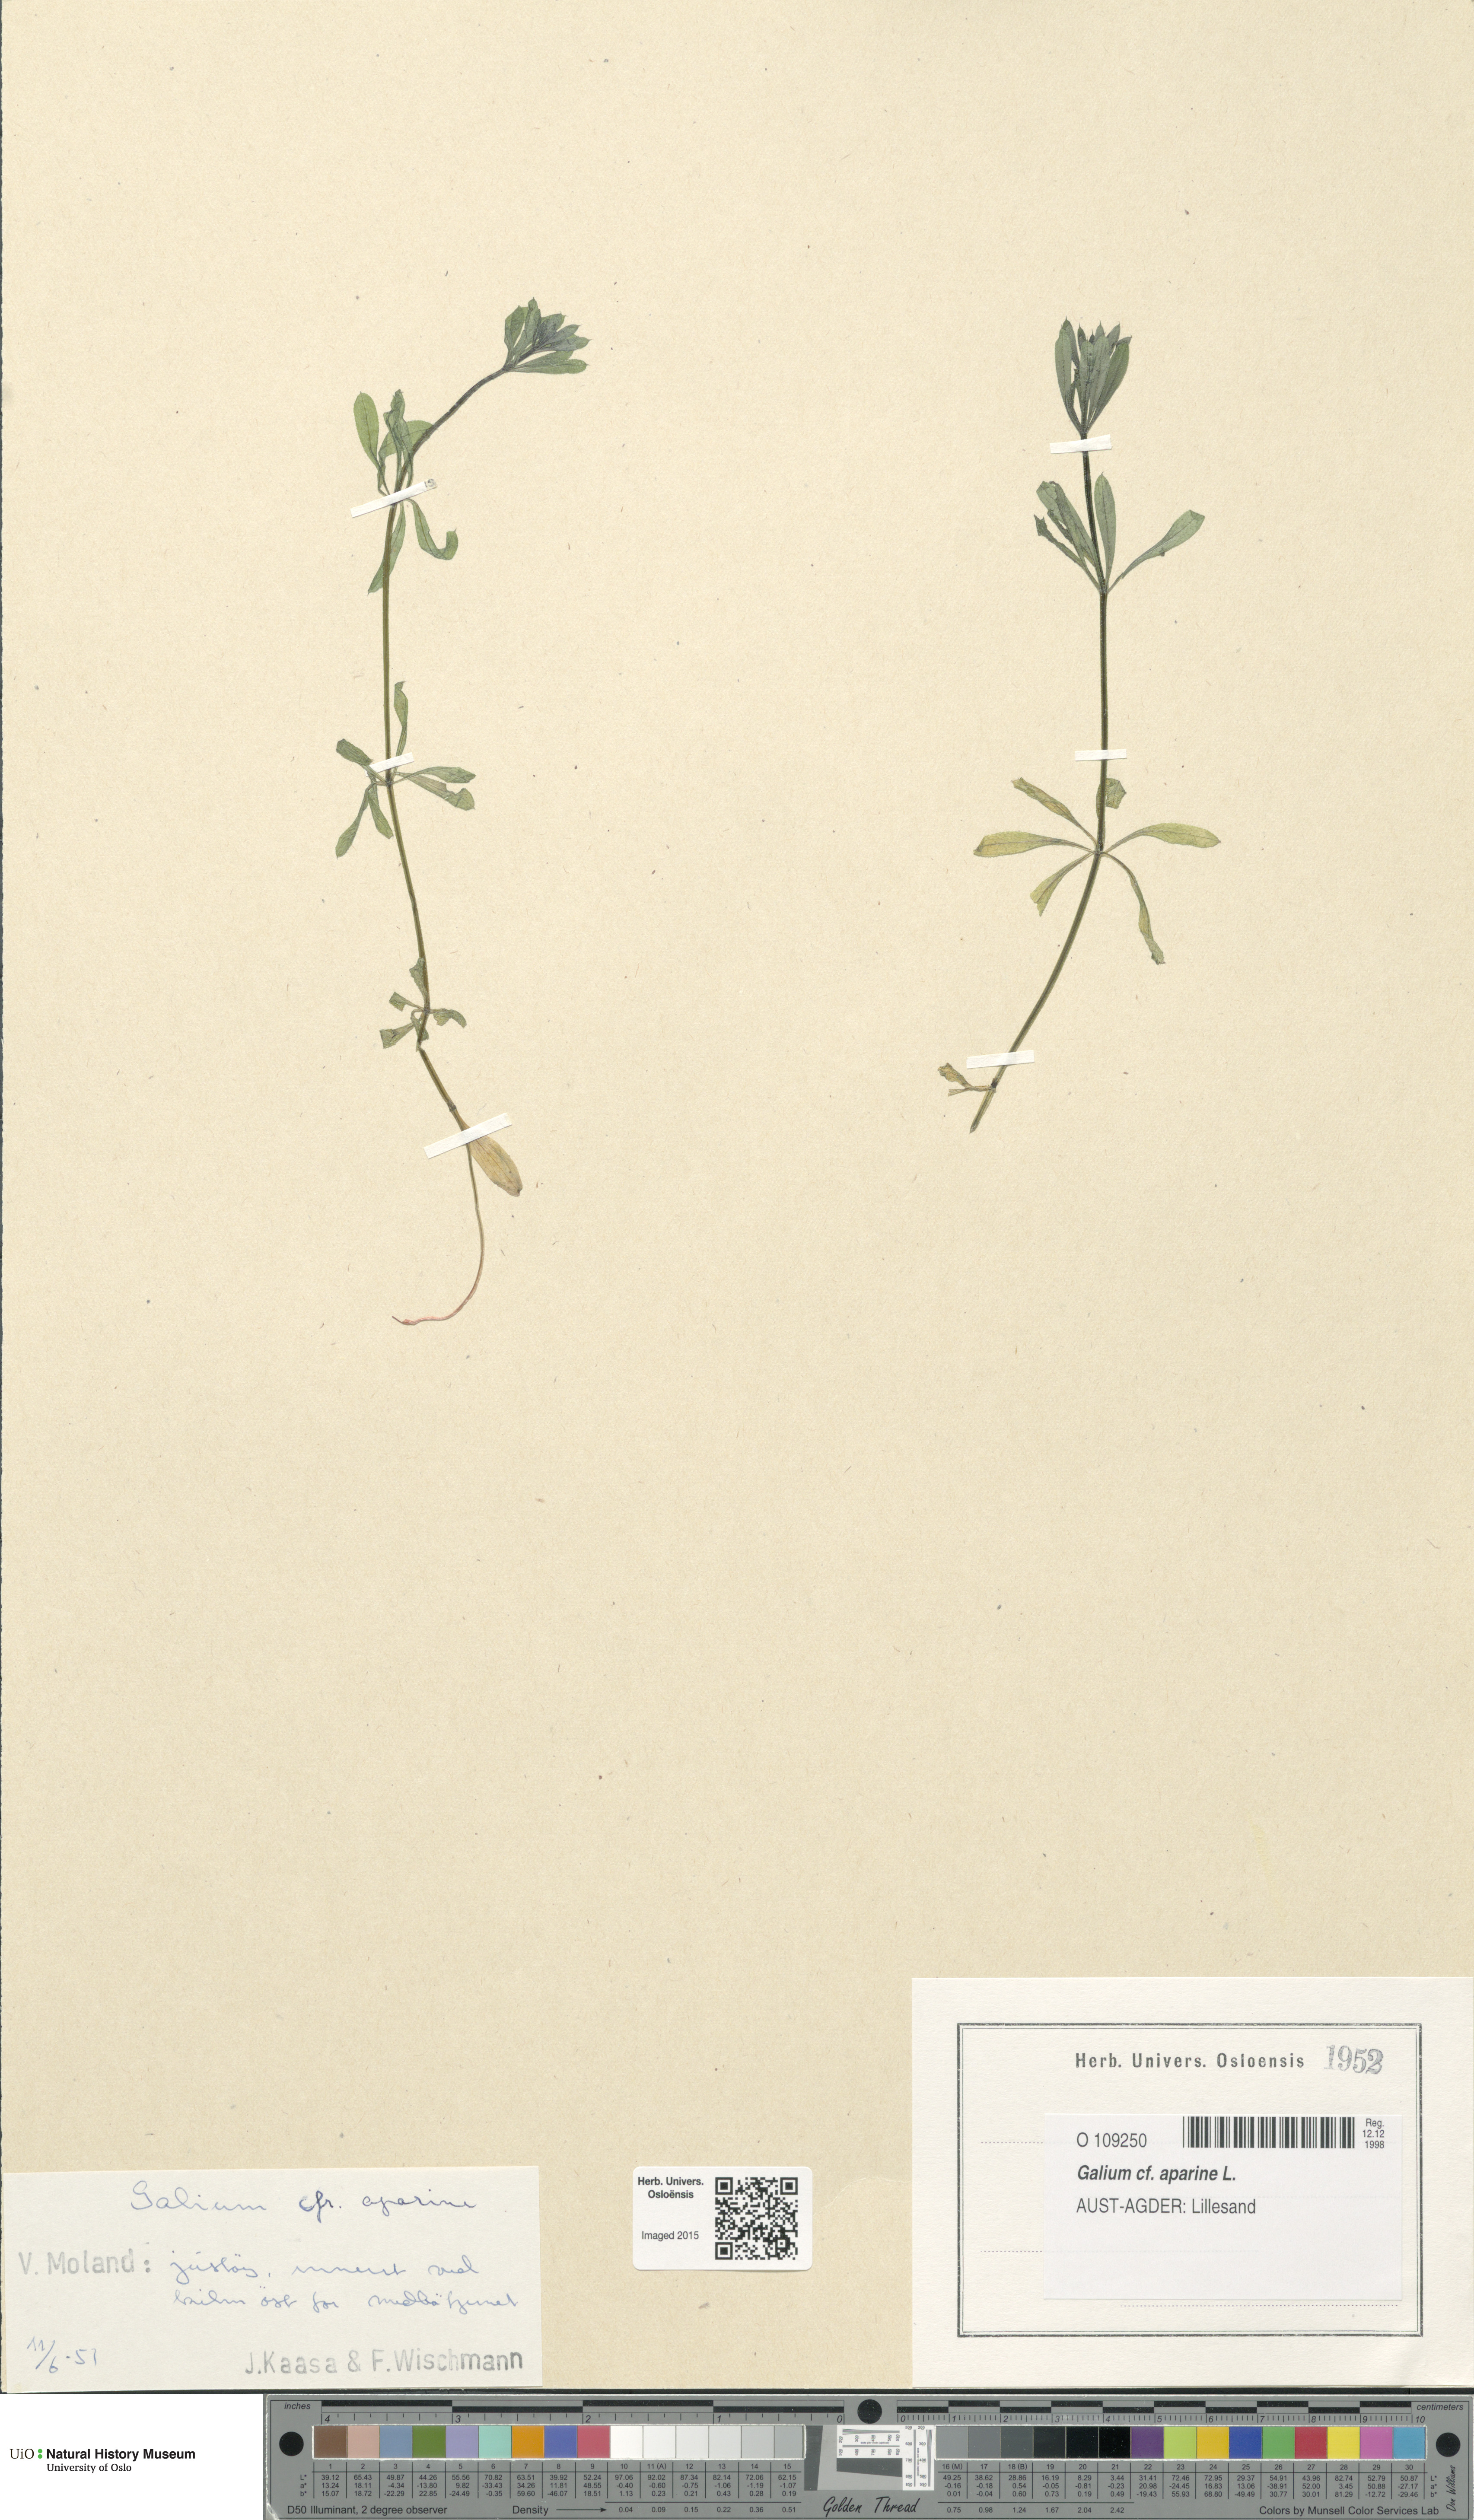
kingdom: Plantae
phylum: Tracheophyta
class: Magnoliopsida
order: Gentianales
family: Rubiaceae
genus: Galium
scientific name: Galium aparine
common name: Cleavers
